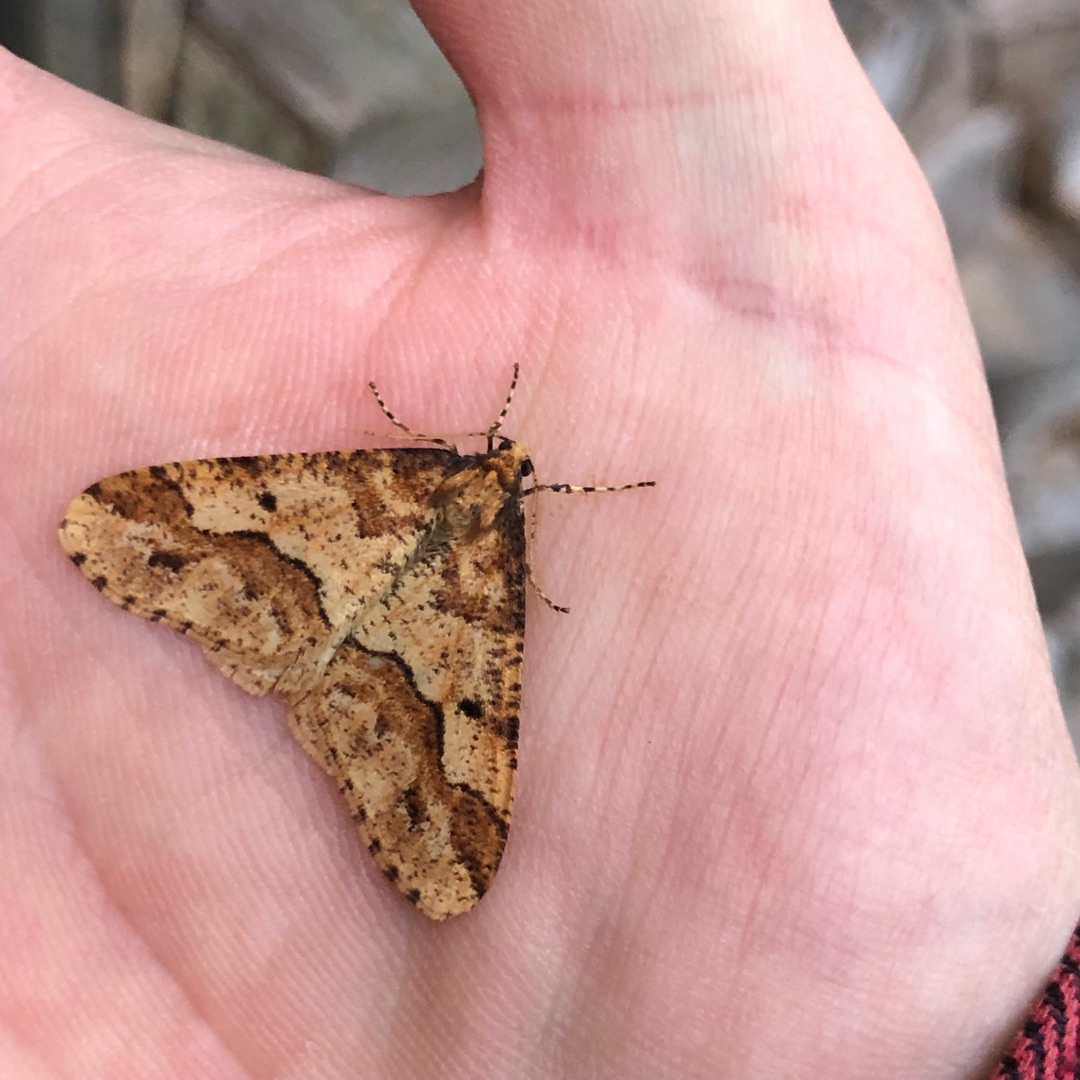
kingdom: Animalia
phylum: Arthropoda
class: Insecta
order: Lepidoptera
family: Geometridae
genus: Erannis
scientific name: Erannis defoliaria
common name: Stor frostmåler
